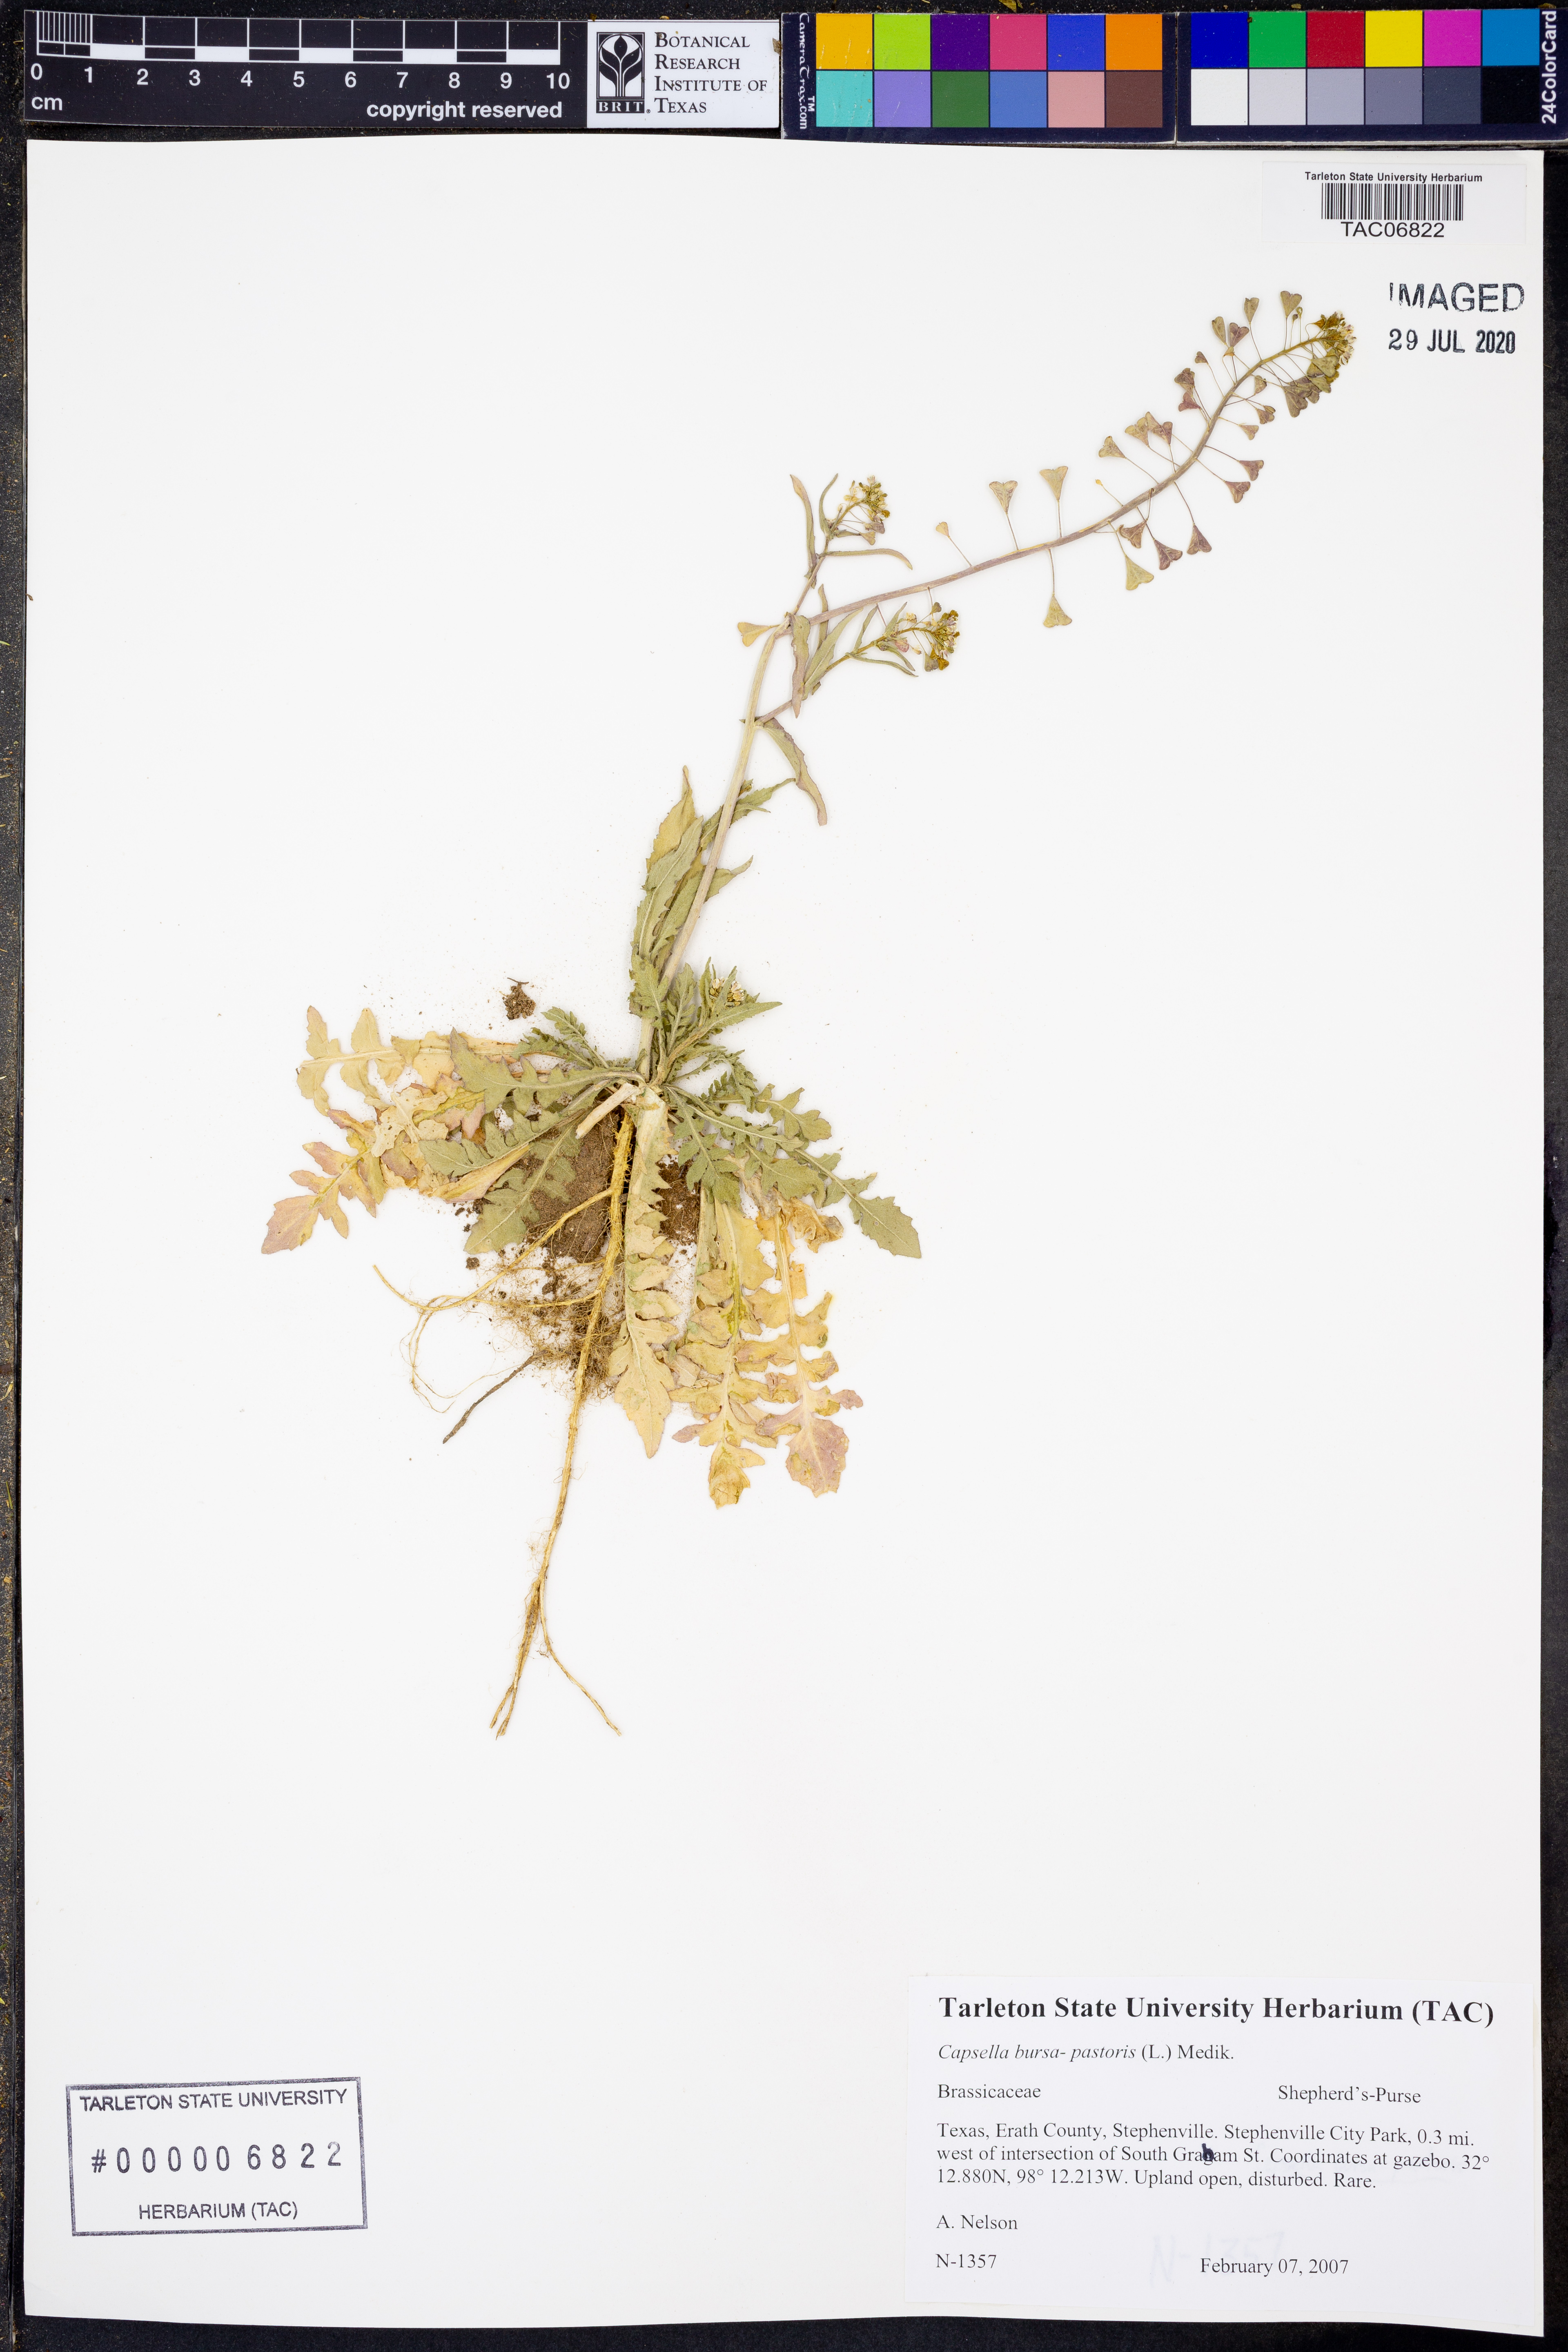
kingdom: Plantae
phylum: Tracheophyta
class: Magnoliopsida
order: Brassicales
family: Brassicaceae
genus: Capsella
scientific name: Capsella bursa-pastoris
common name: Shepherd's purse
